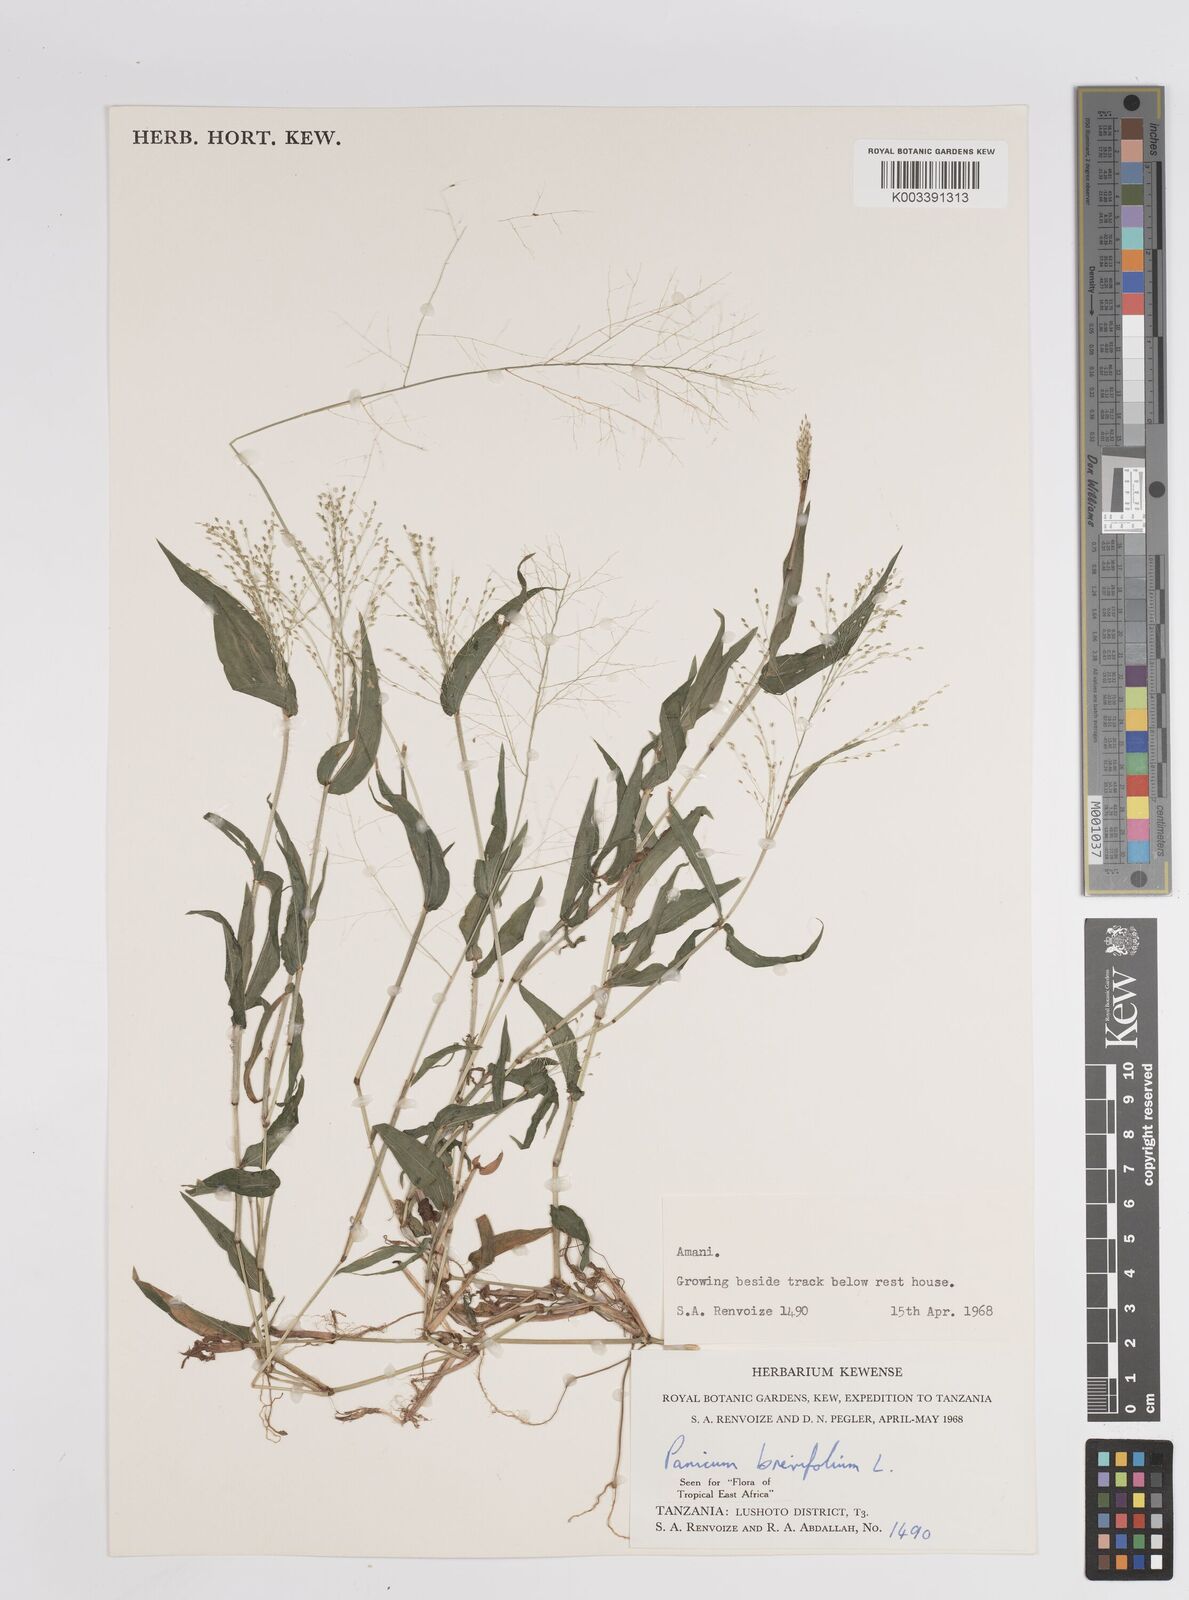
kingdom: Plantae
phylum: Tracheophyta
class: Liliopsida
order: Poales
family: Poaceae
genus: Panicum
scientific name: Panicum brevifolium
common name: Shortleaf panic grass
